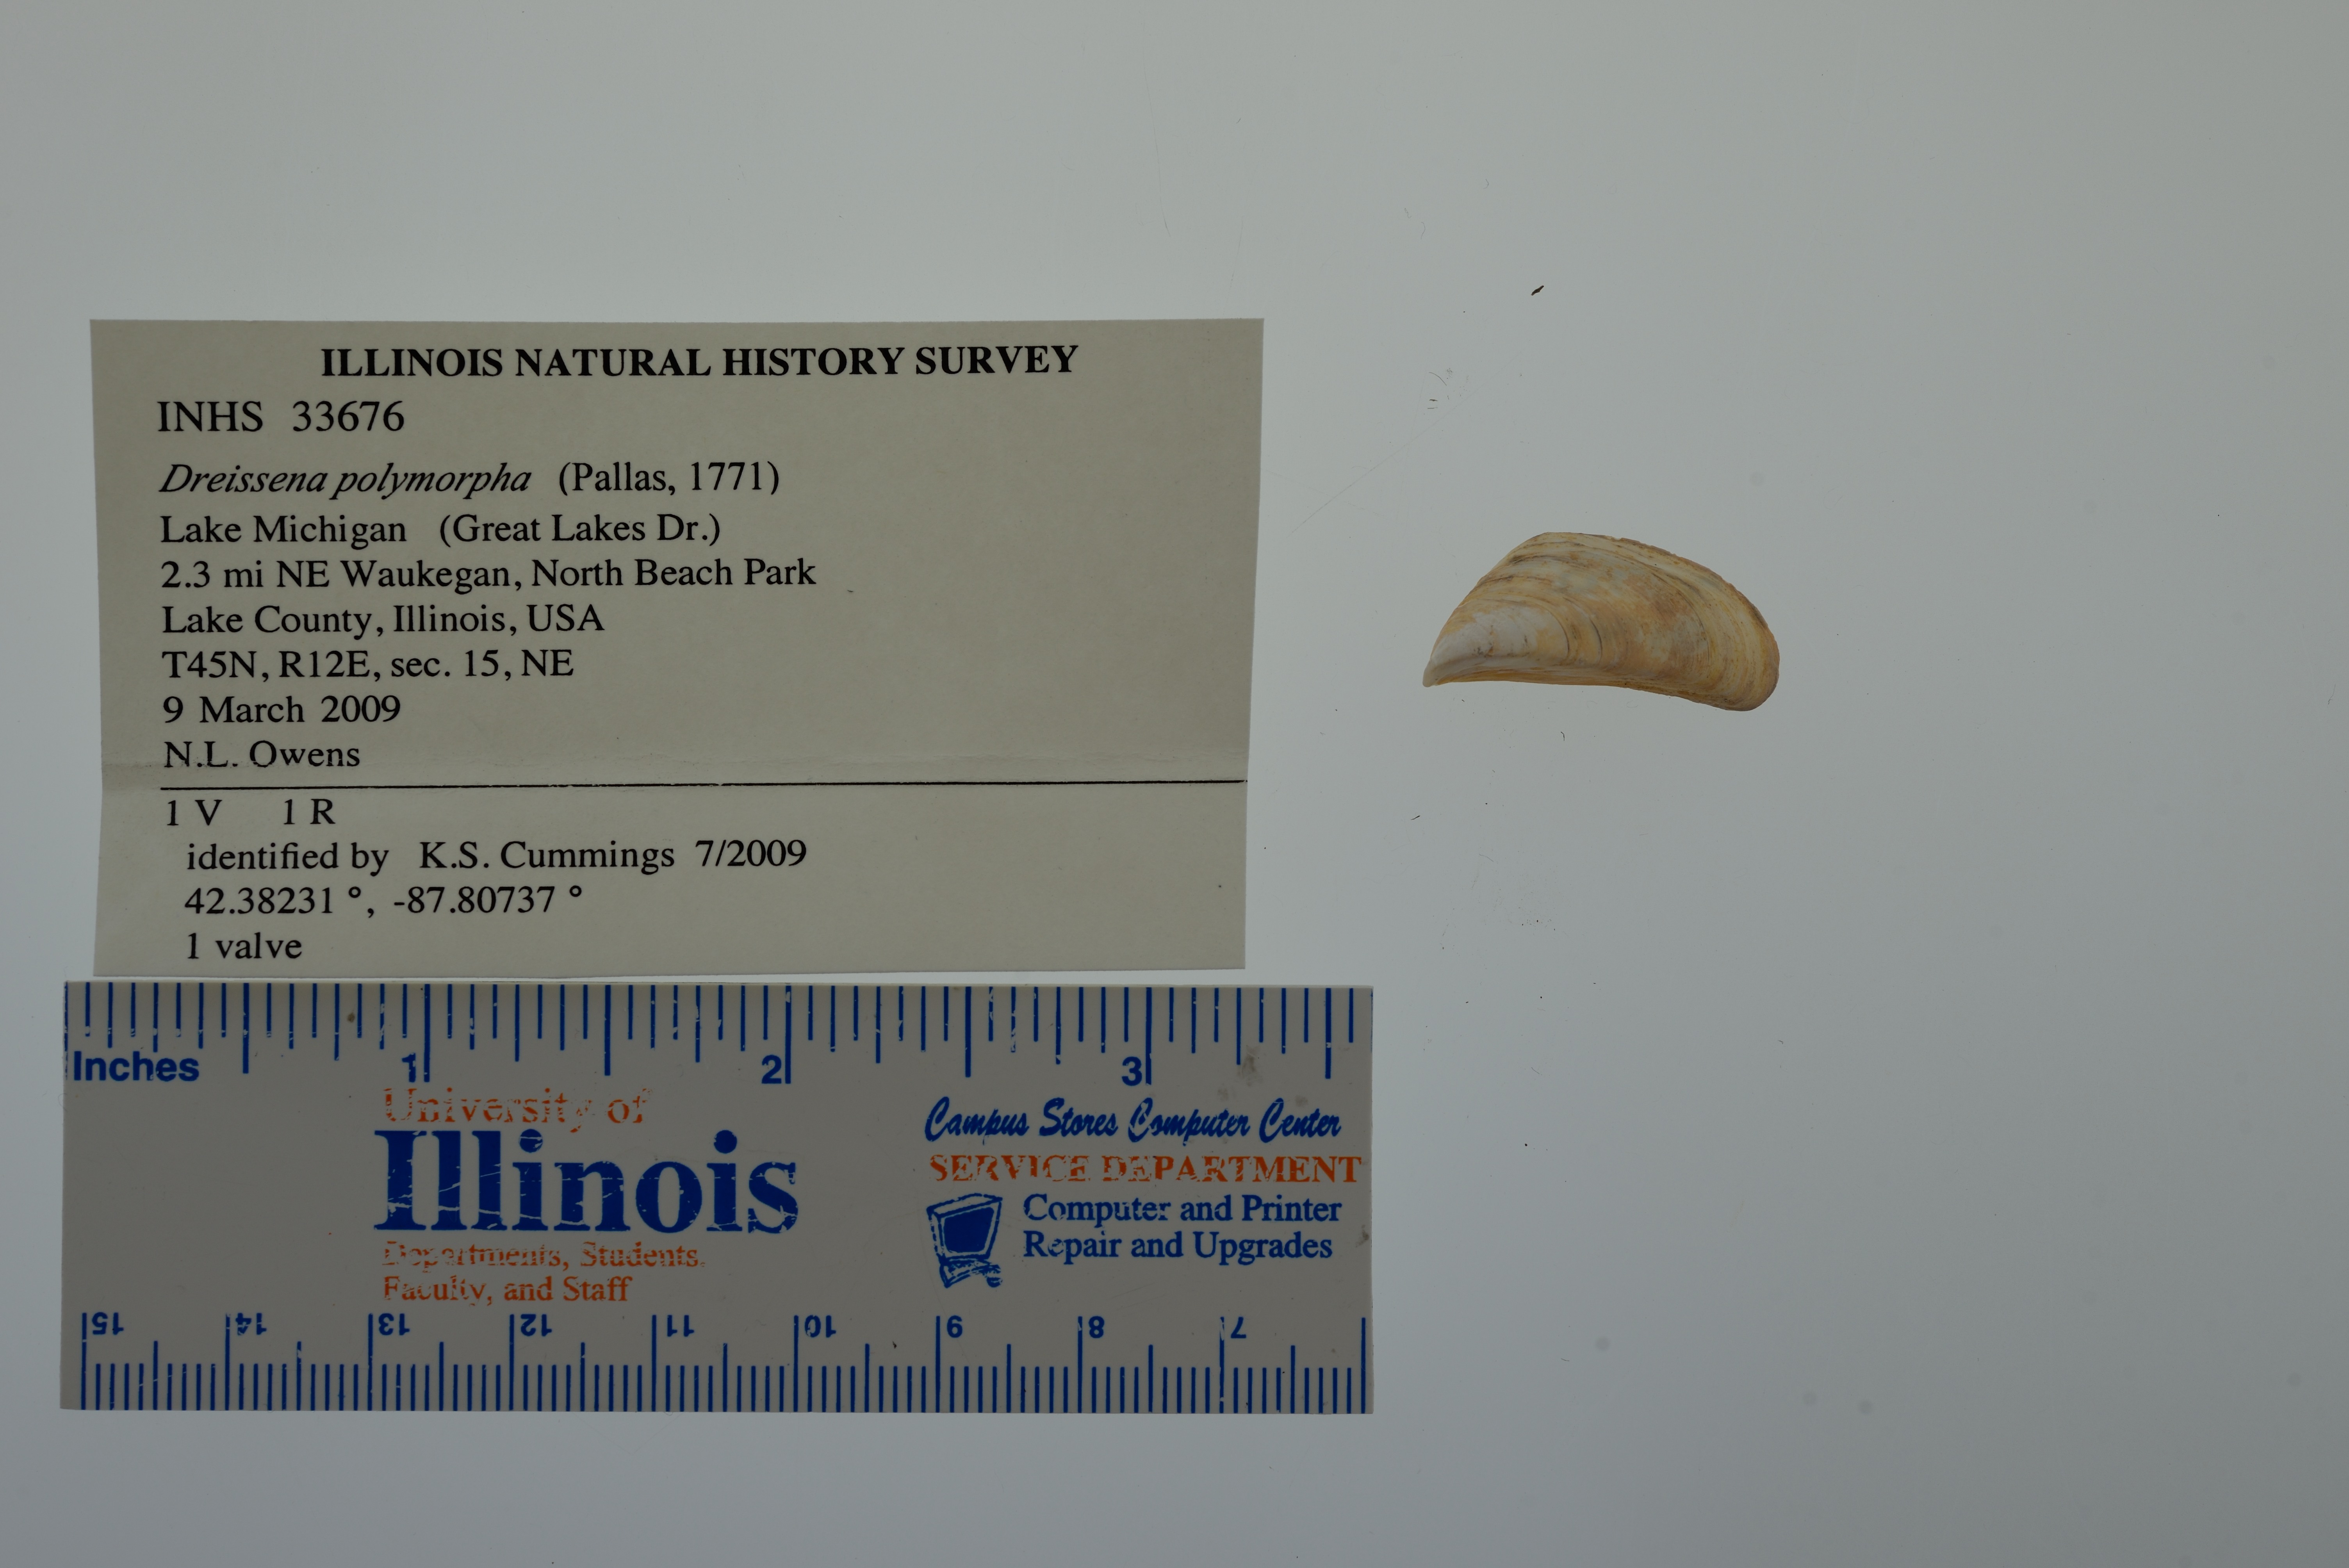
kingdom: Animalia
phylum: Mollusca
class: Bivalvia
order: Myida
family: Dreissenidae
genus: Dreissena
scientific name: Dreissena polymorpha
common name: Zebra mussel
